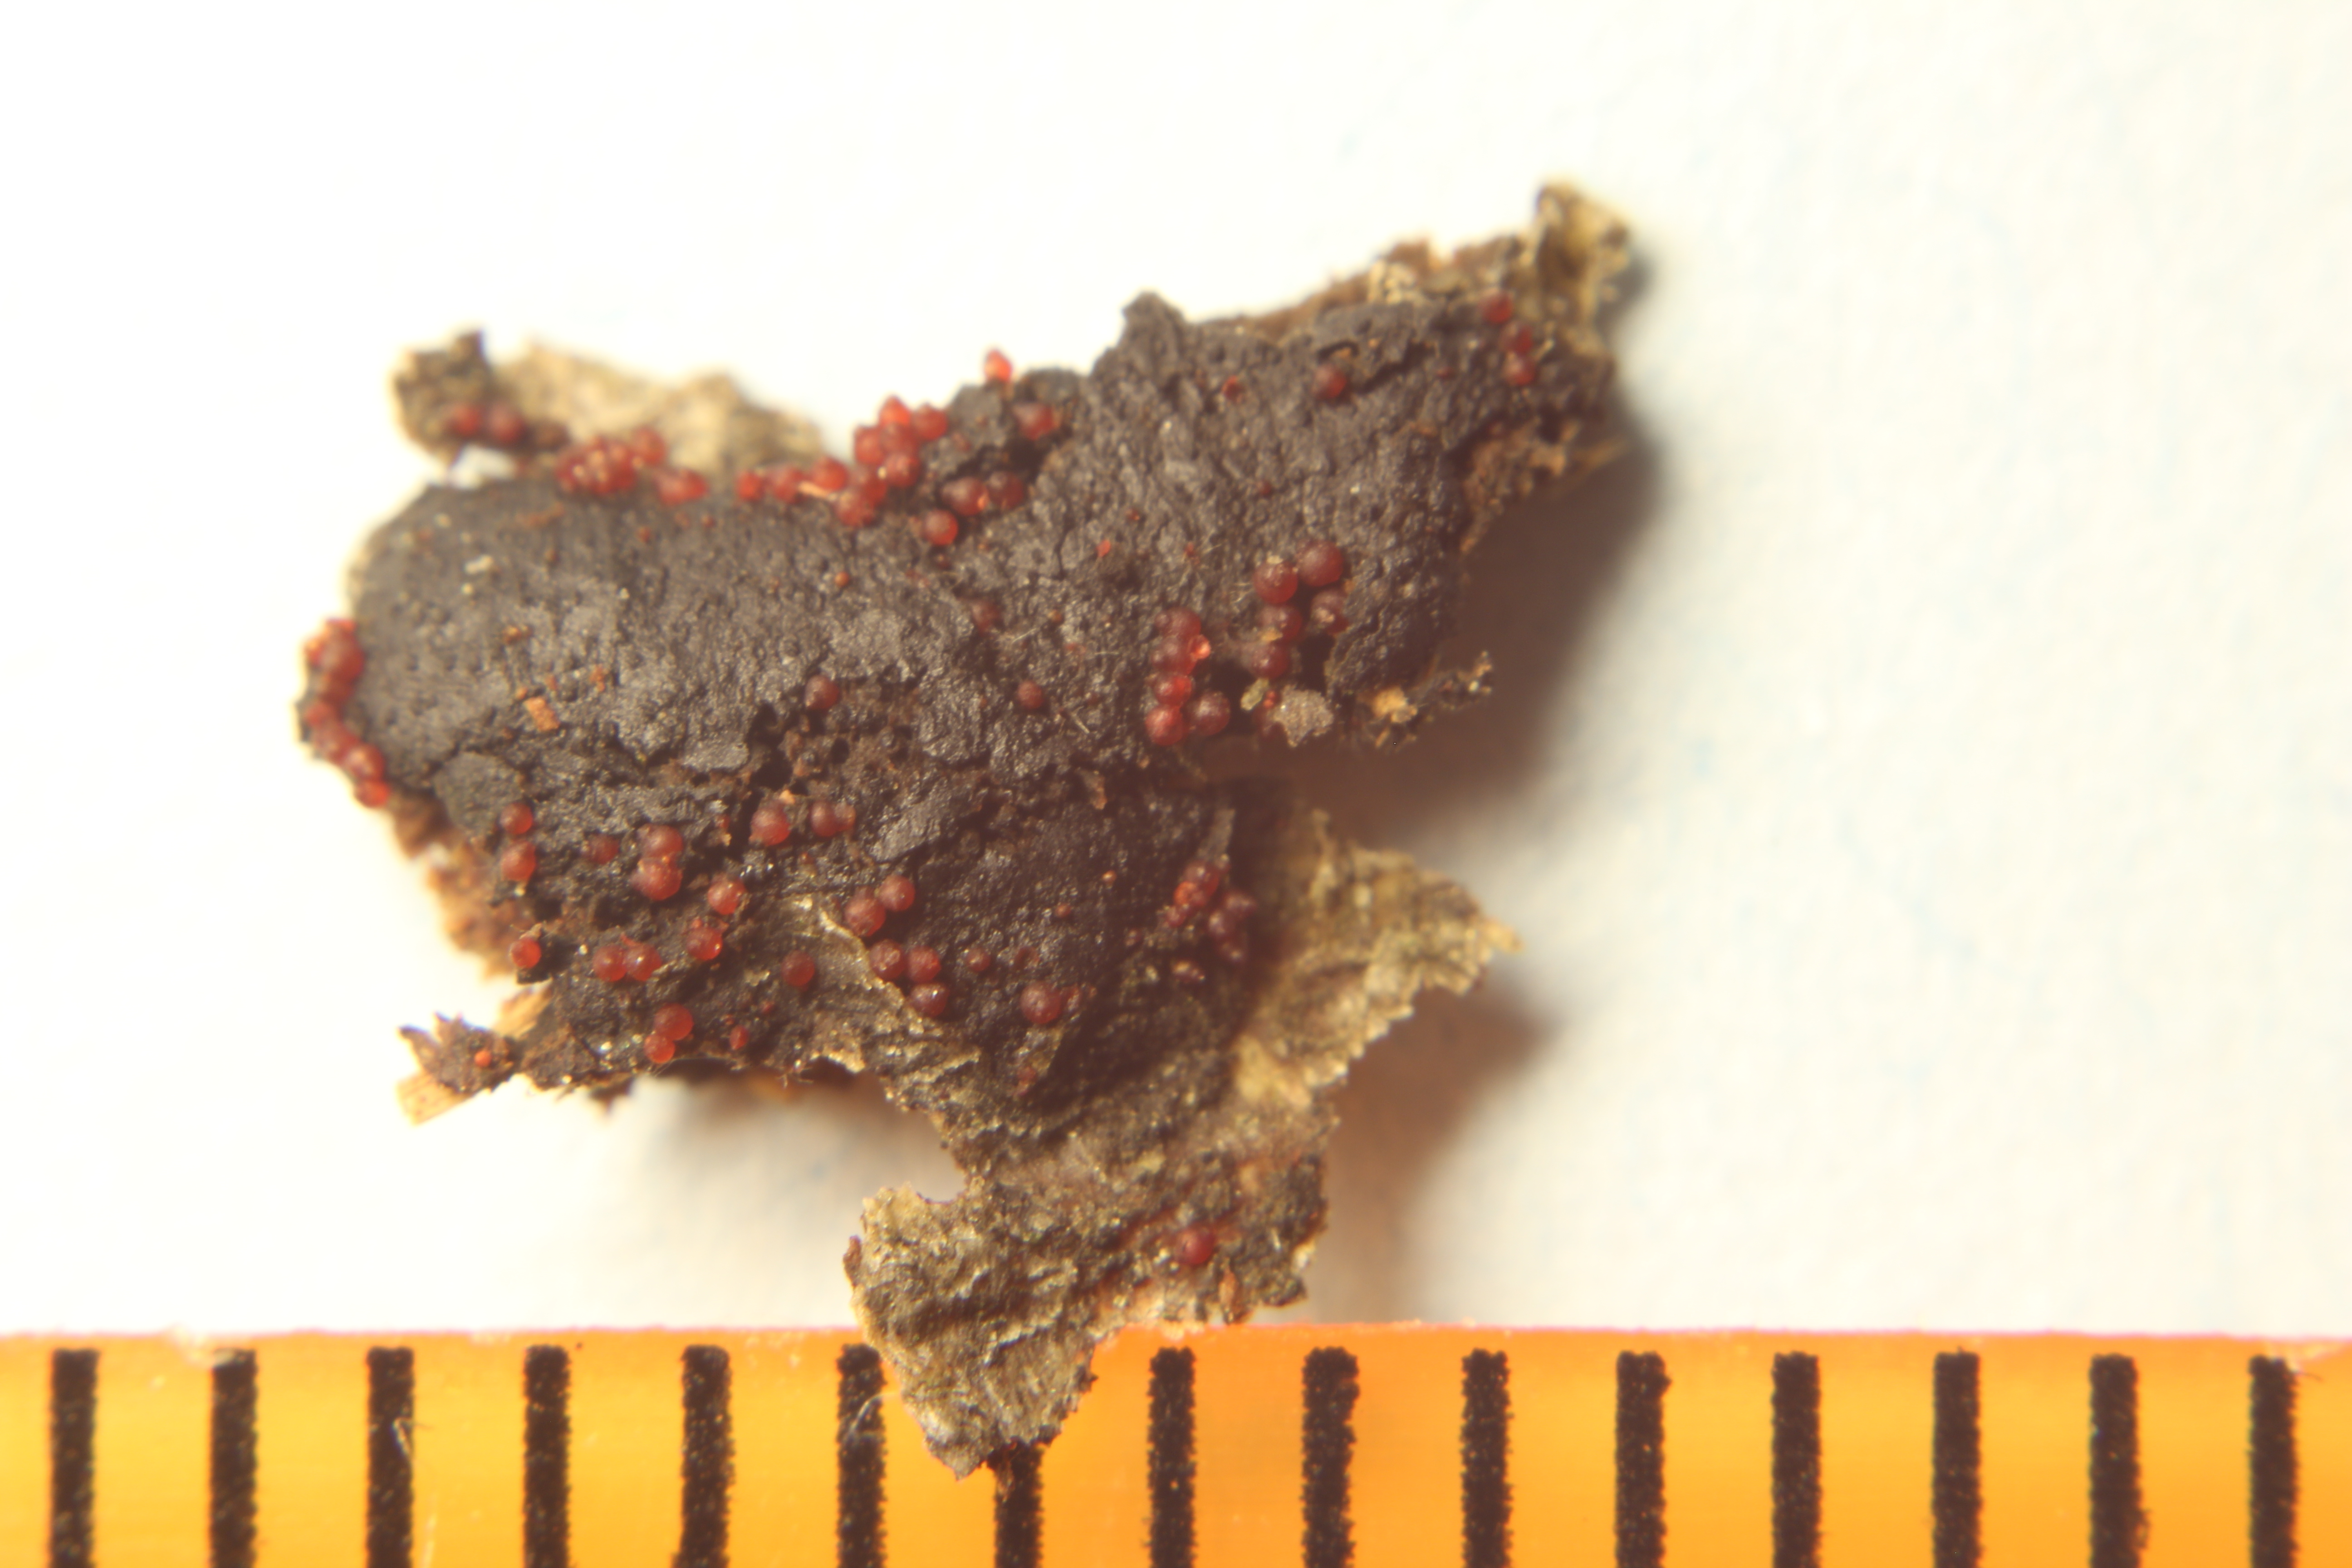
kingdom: Fungi
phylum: Ascomycota
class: Sordariomycetes
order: Xylariales
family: Diatrypaceae
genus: Diatrype
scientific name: Diatrype bullata
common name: Willow barkspot
